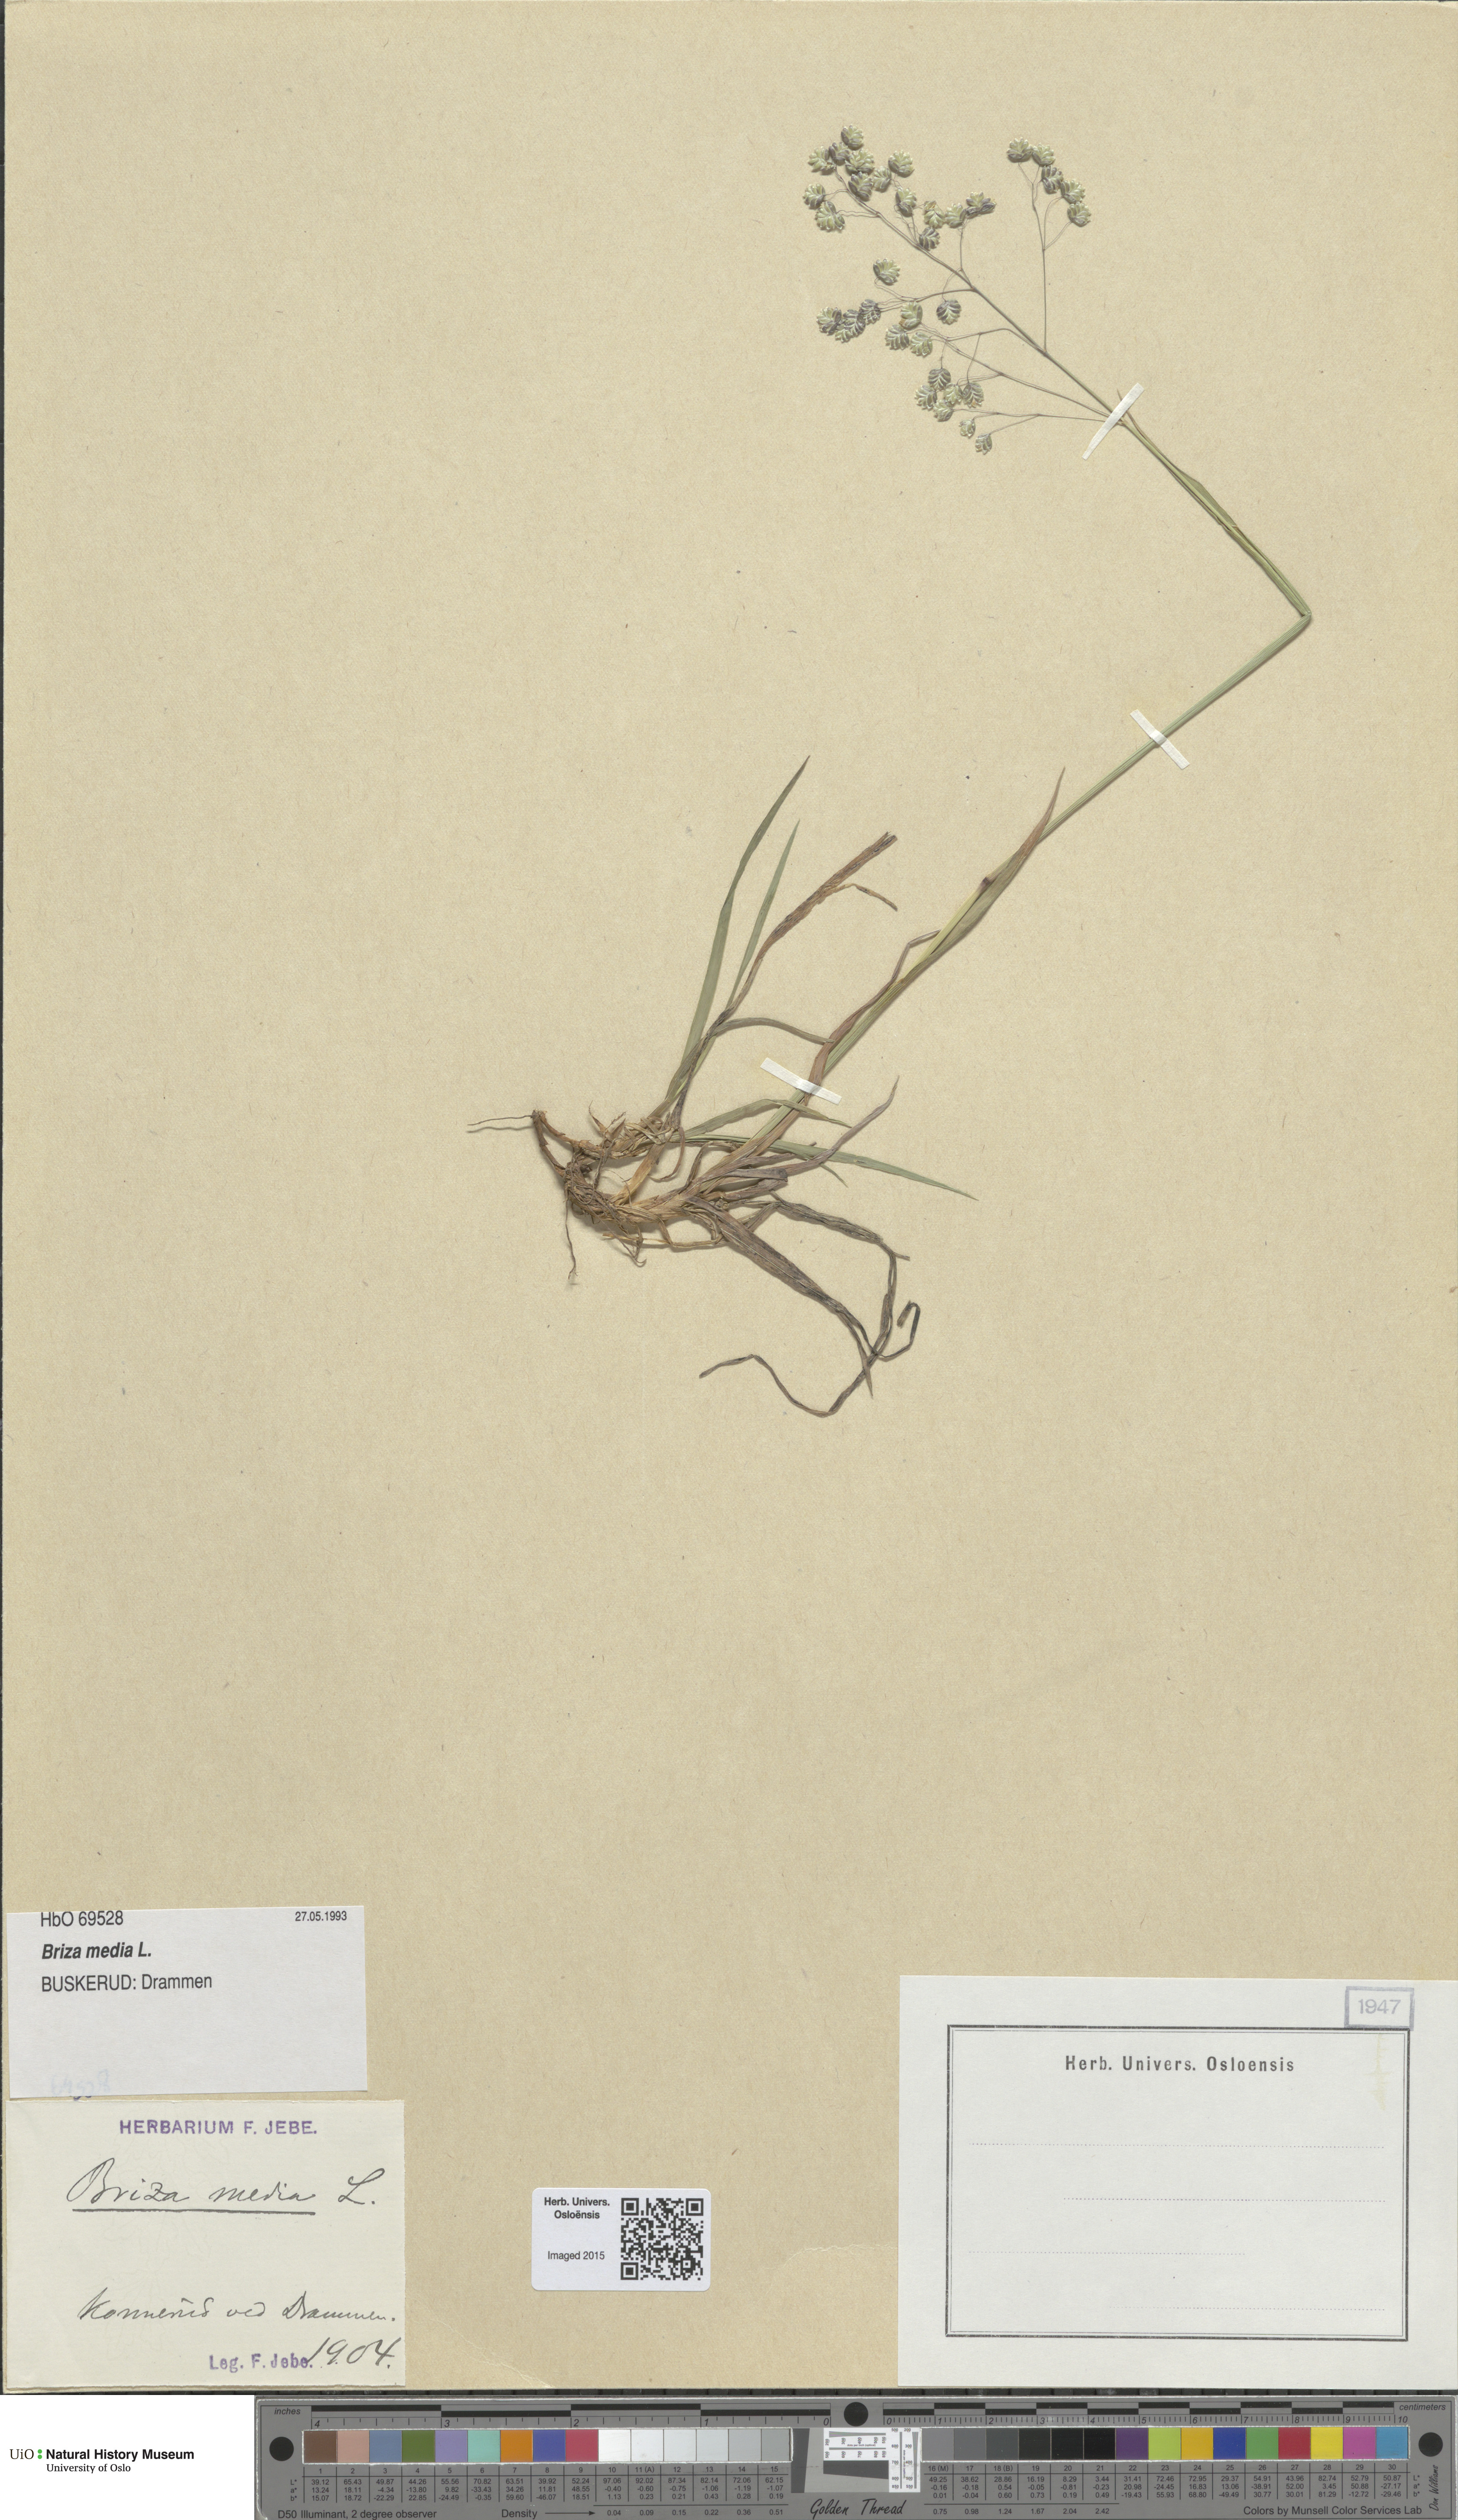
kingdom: Plantae
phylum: Tracheophyta
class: Liliopsida
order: Poales
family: Poaceae
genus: Briza
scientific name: Briza media
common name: Quaking grass
